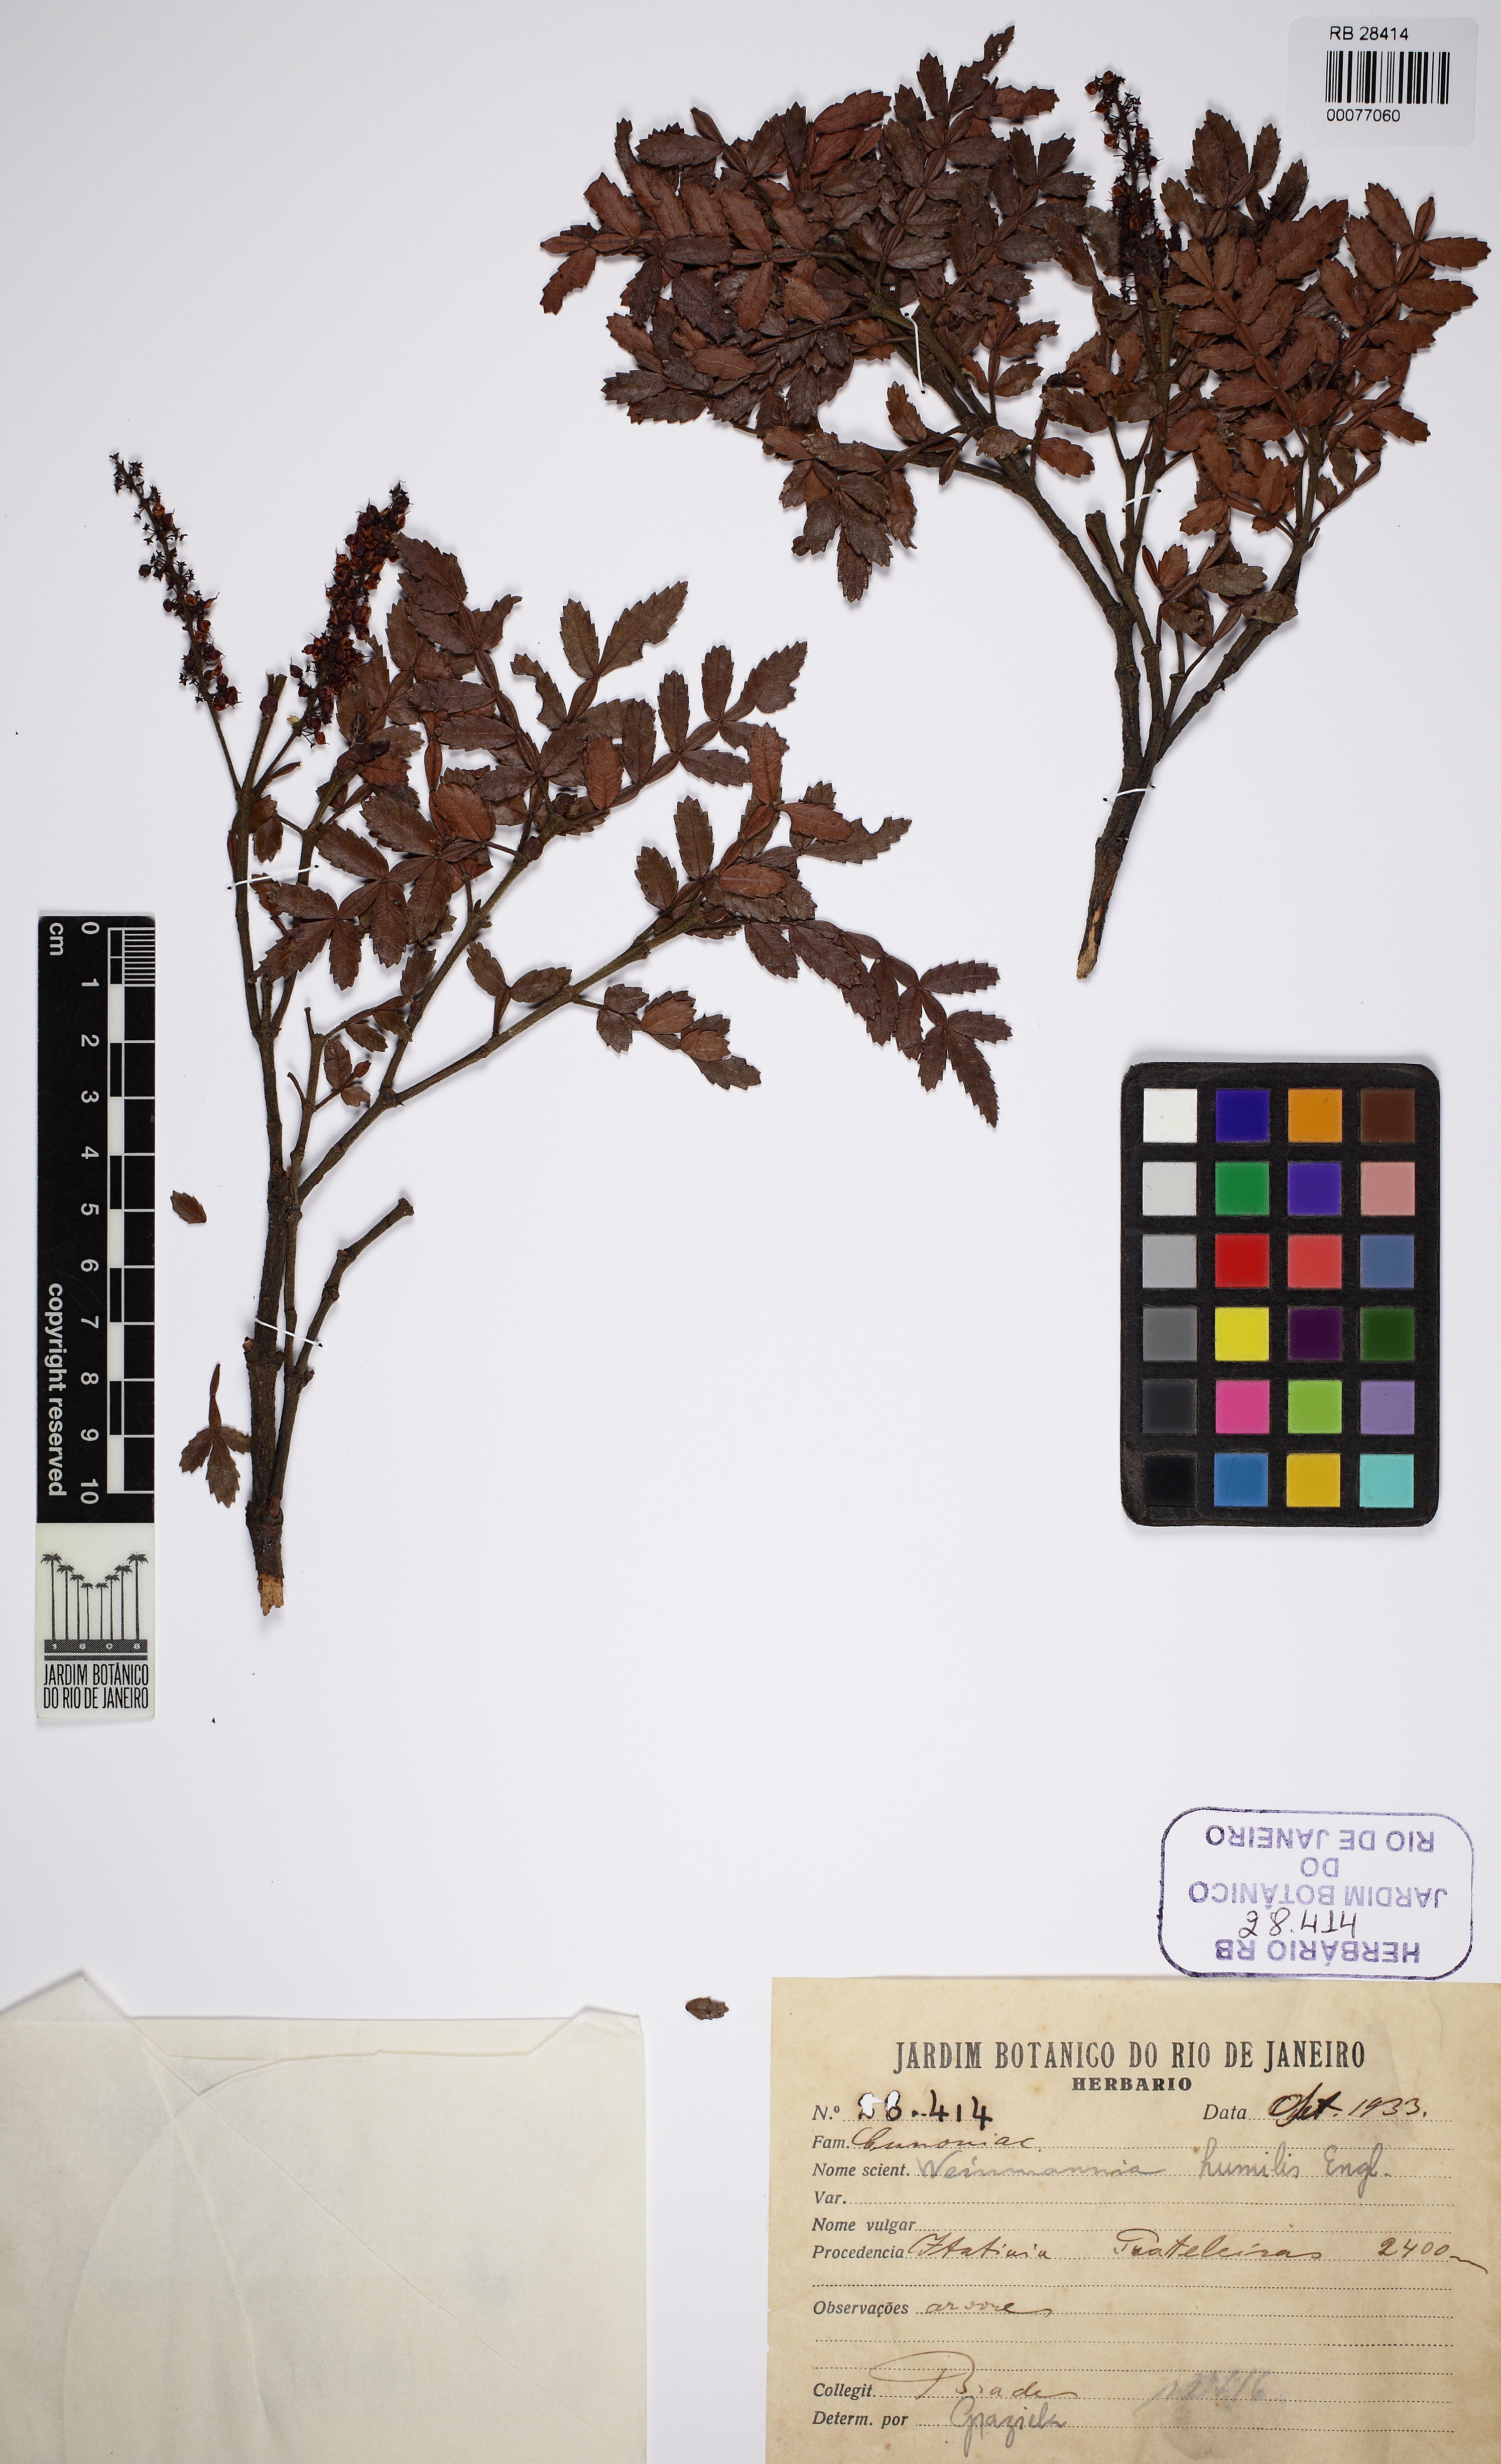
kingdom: Plantae
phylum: Tracheophyta
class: Magnoliopsida
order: Oxalidales
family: Cunoniaceae
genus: Weinmannia
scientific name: Weinmannia humilis
